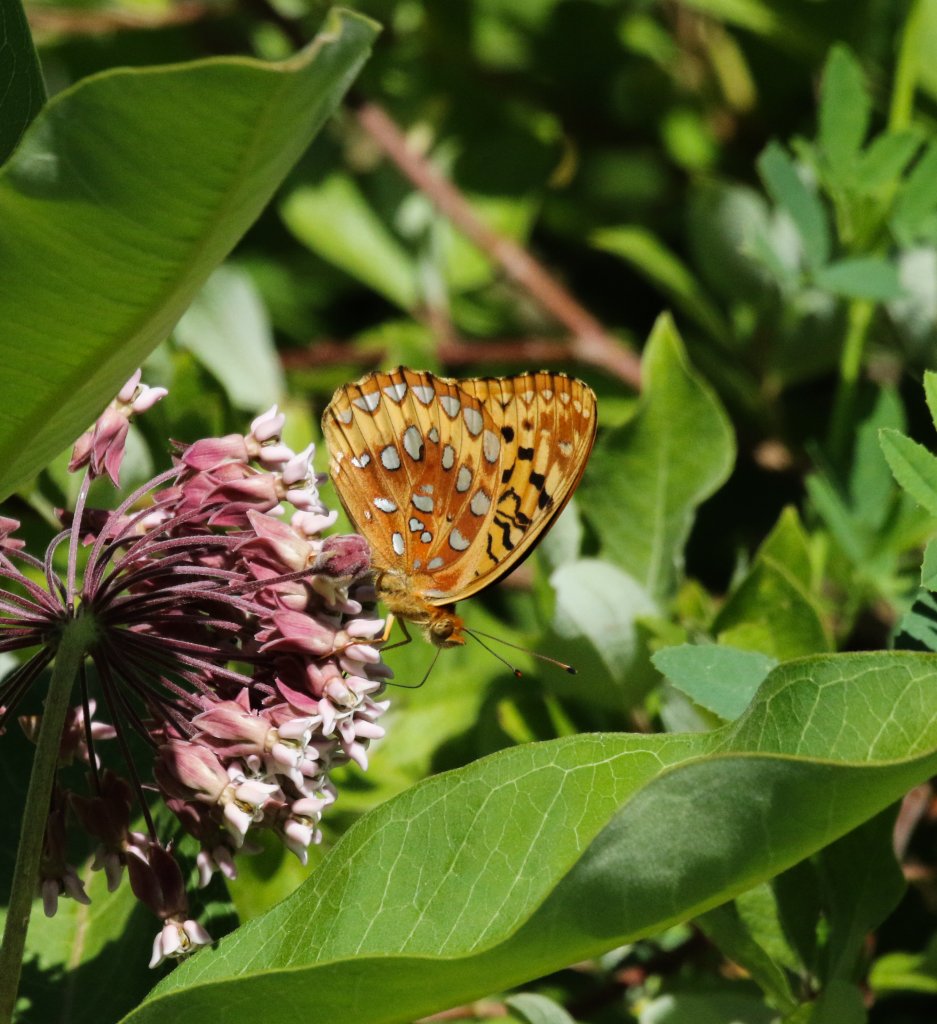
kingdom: Animalia
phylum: Arthropoda
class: Insecta
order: Lepidoptera
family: Nymphalidae
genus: Speyeria
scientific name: Speyeria cybele
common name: Great Spangled Fritillary
